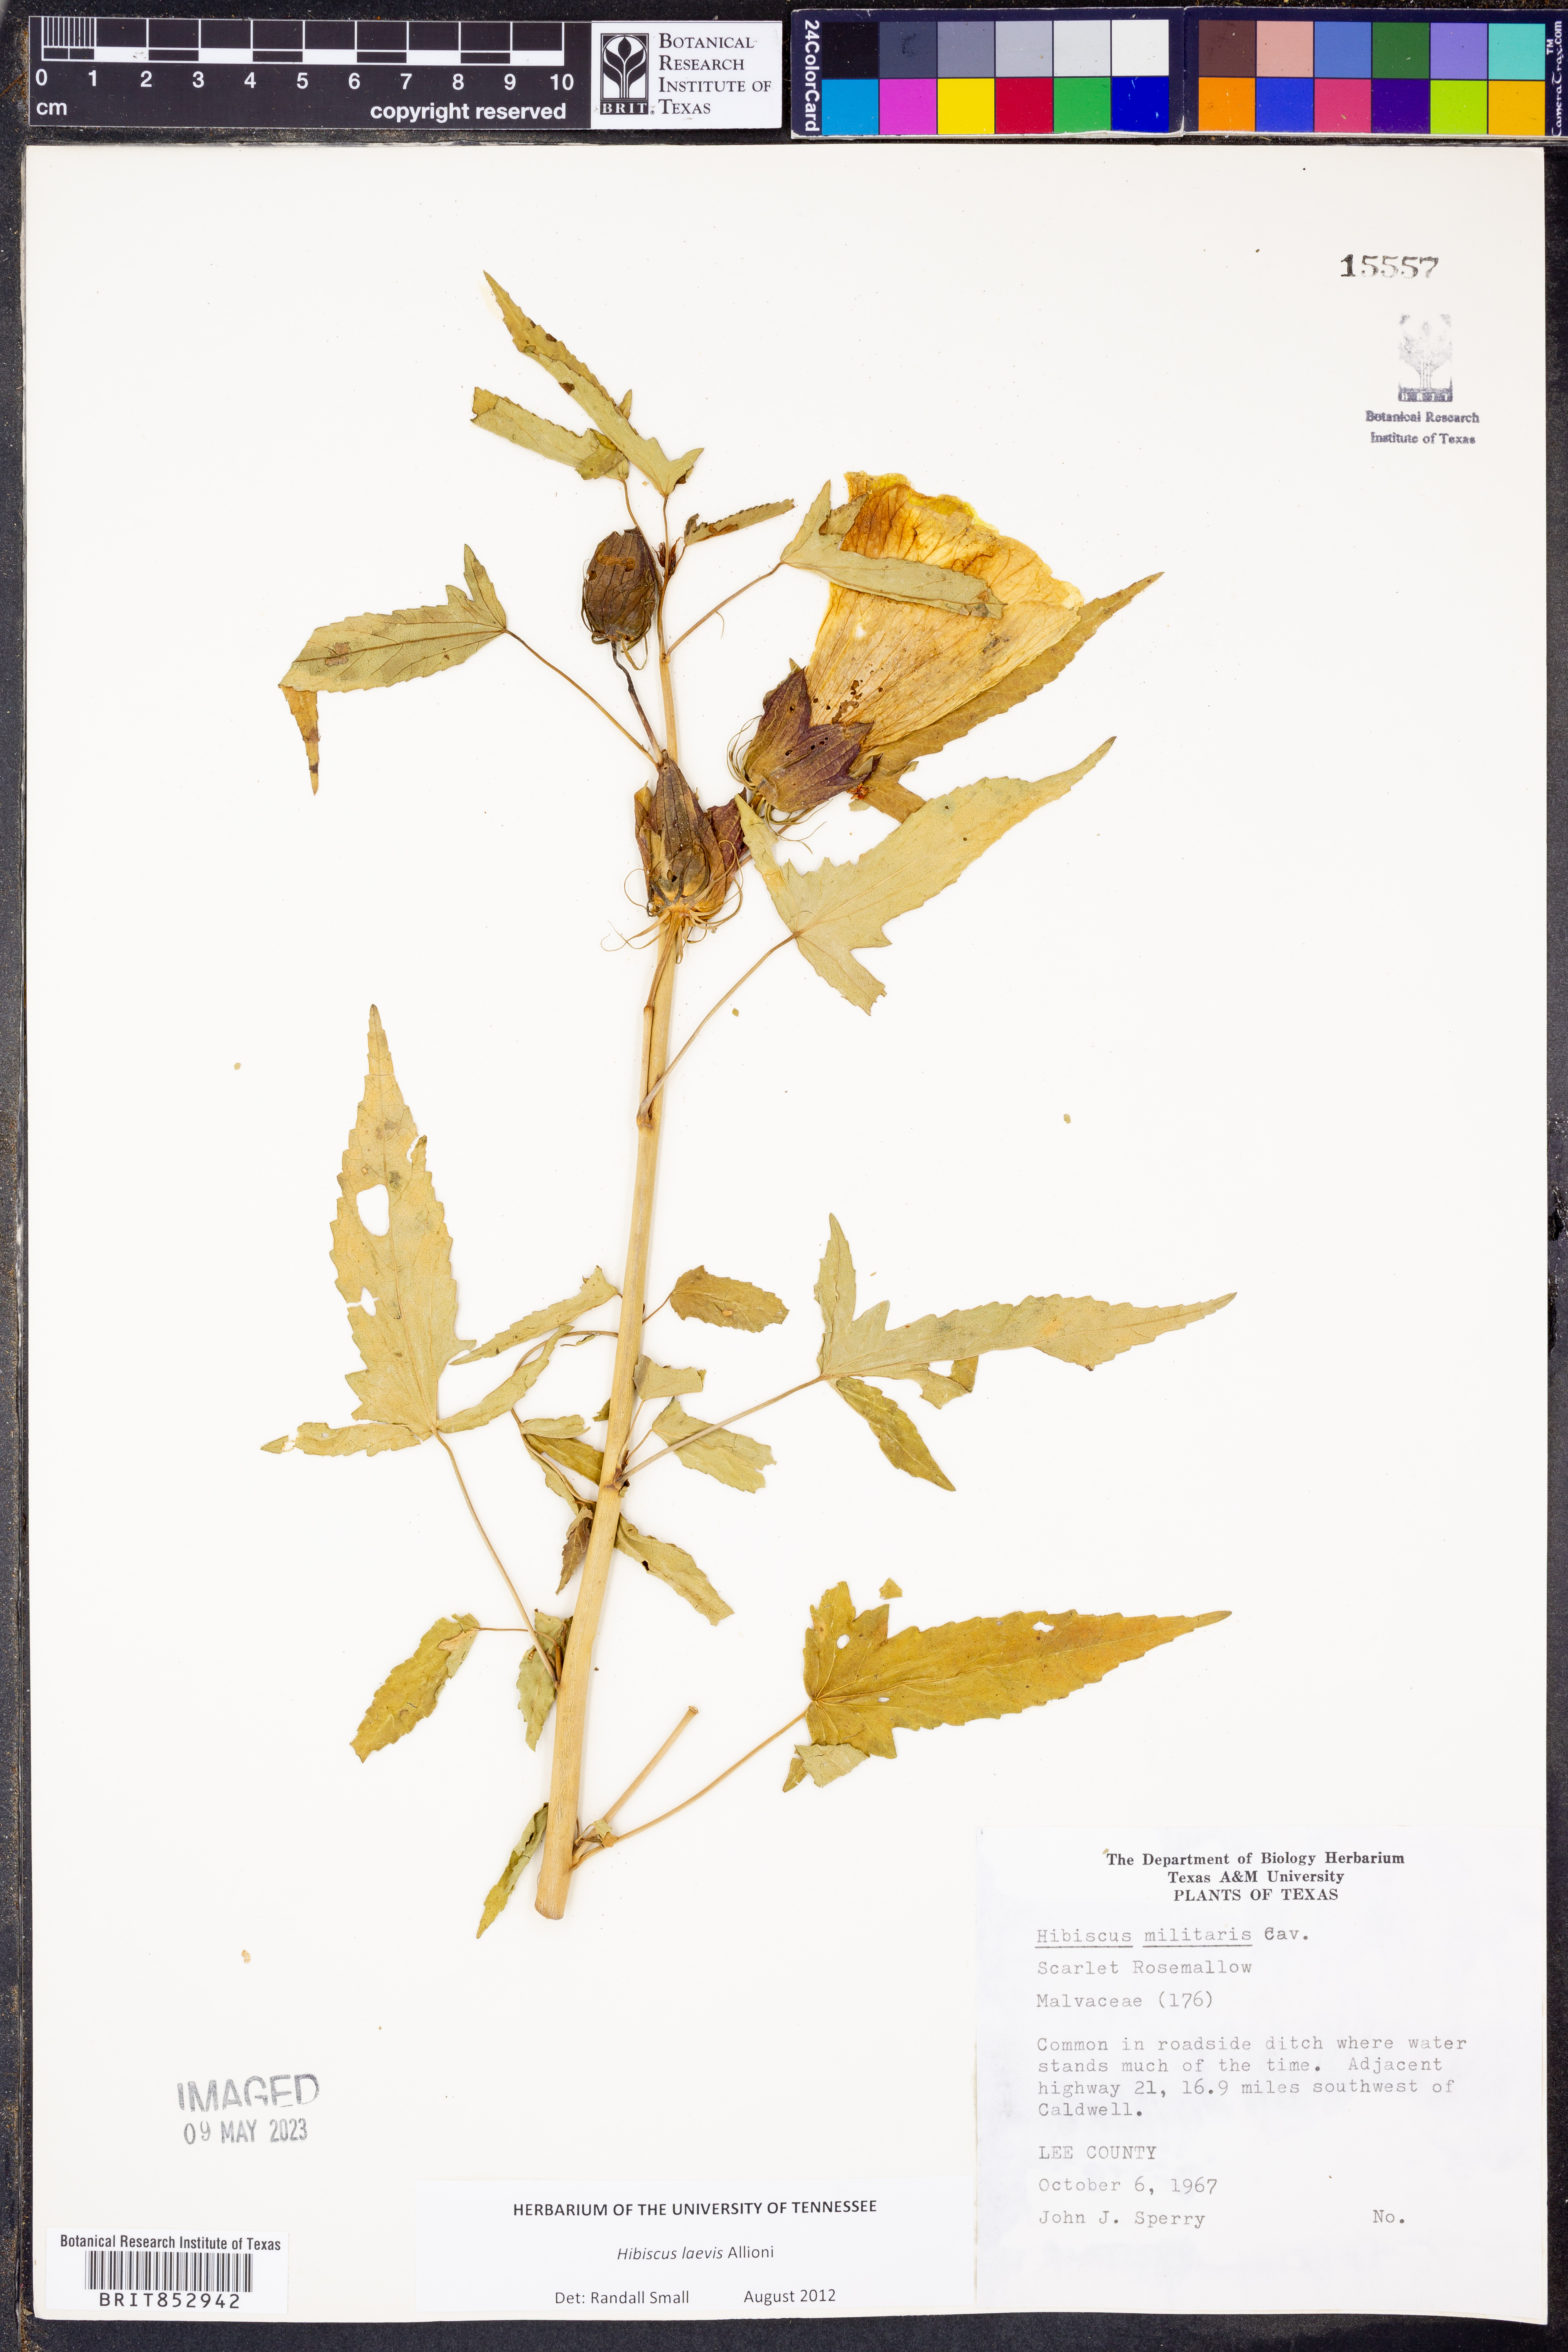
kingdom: Plantae
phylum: Tracheophyta
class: Magnoliopsida
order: Malvales
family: Malvaceae
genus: Hibiscus
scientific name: Hibiscus laevis
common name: Scarlet rose-mallow
